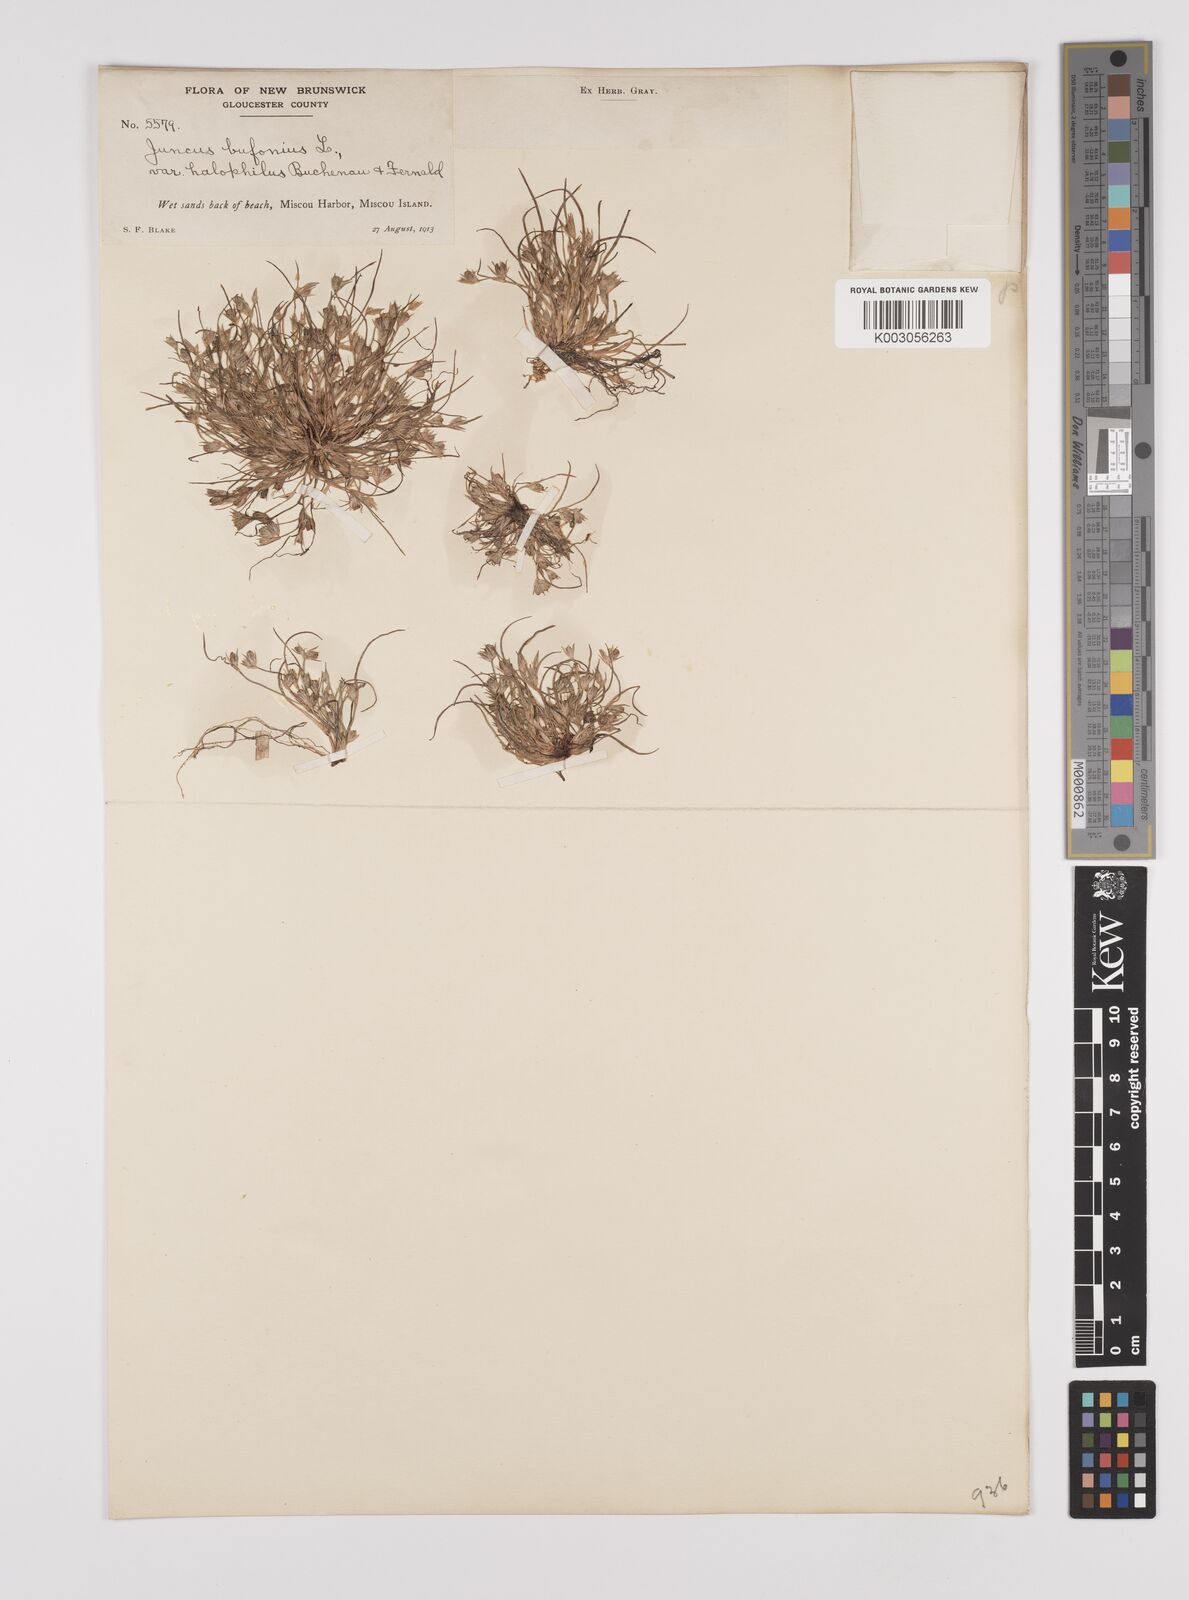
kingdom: Plantae
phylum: Tracheophyta
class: Liliopsida
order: Poales
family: Juncaceae
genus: Juncus
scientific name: Juncus ranarius
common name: Frog rush
